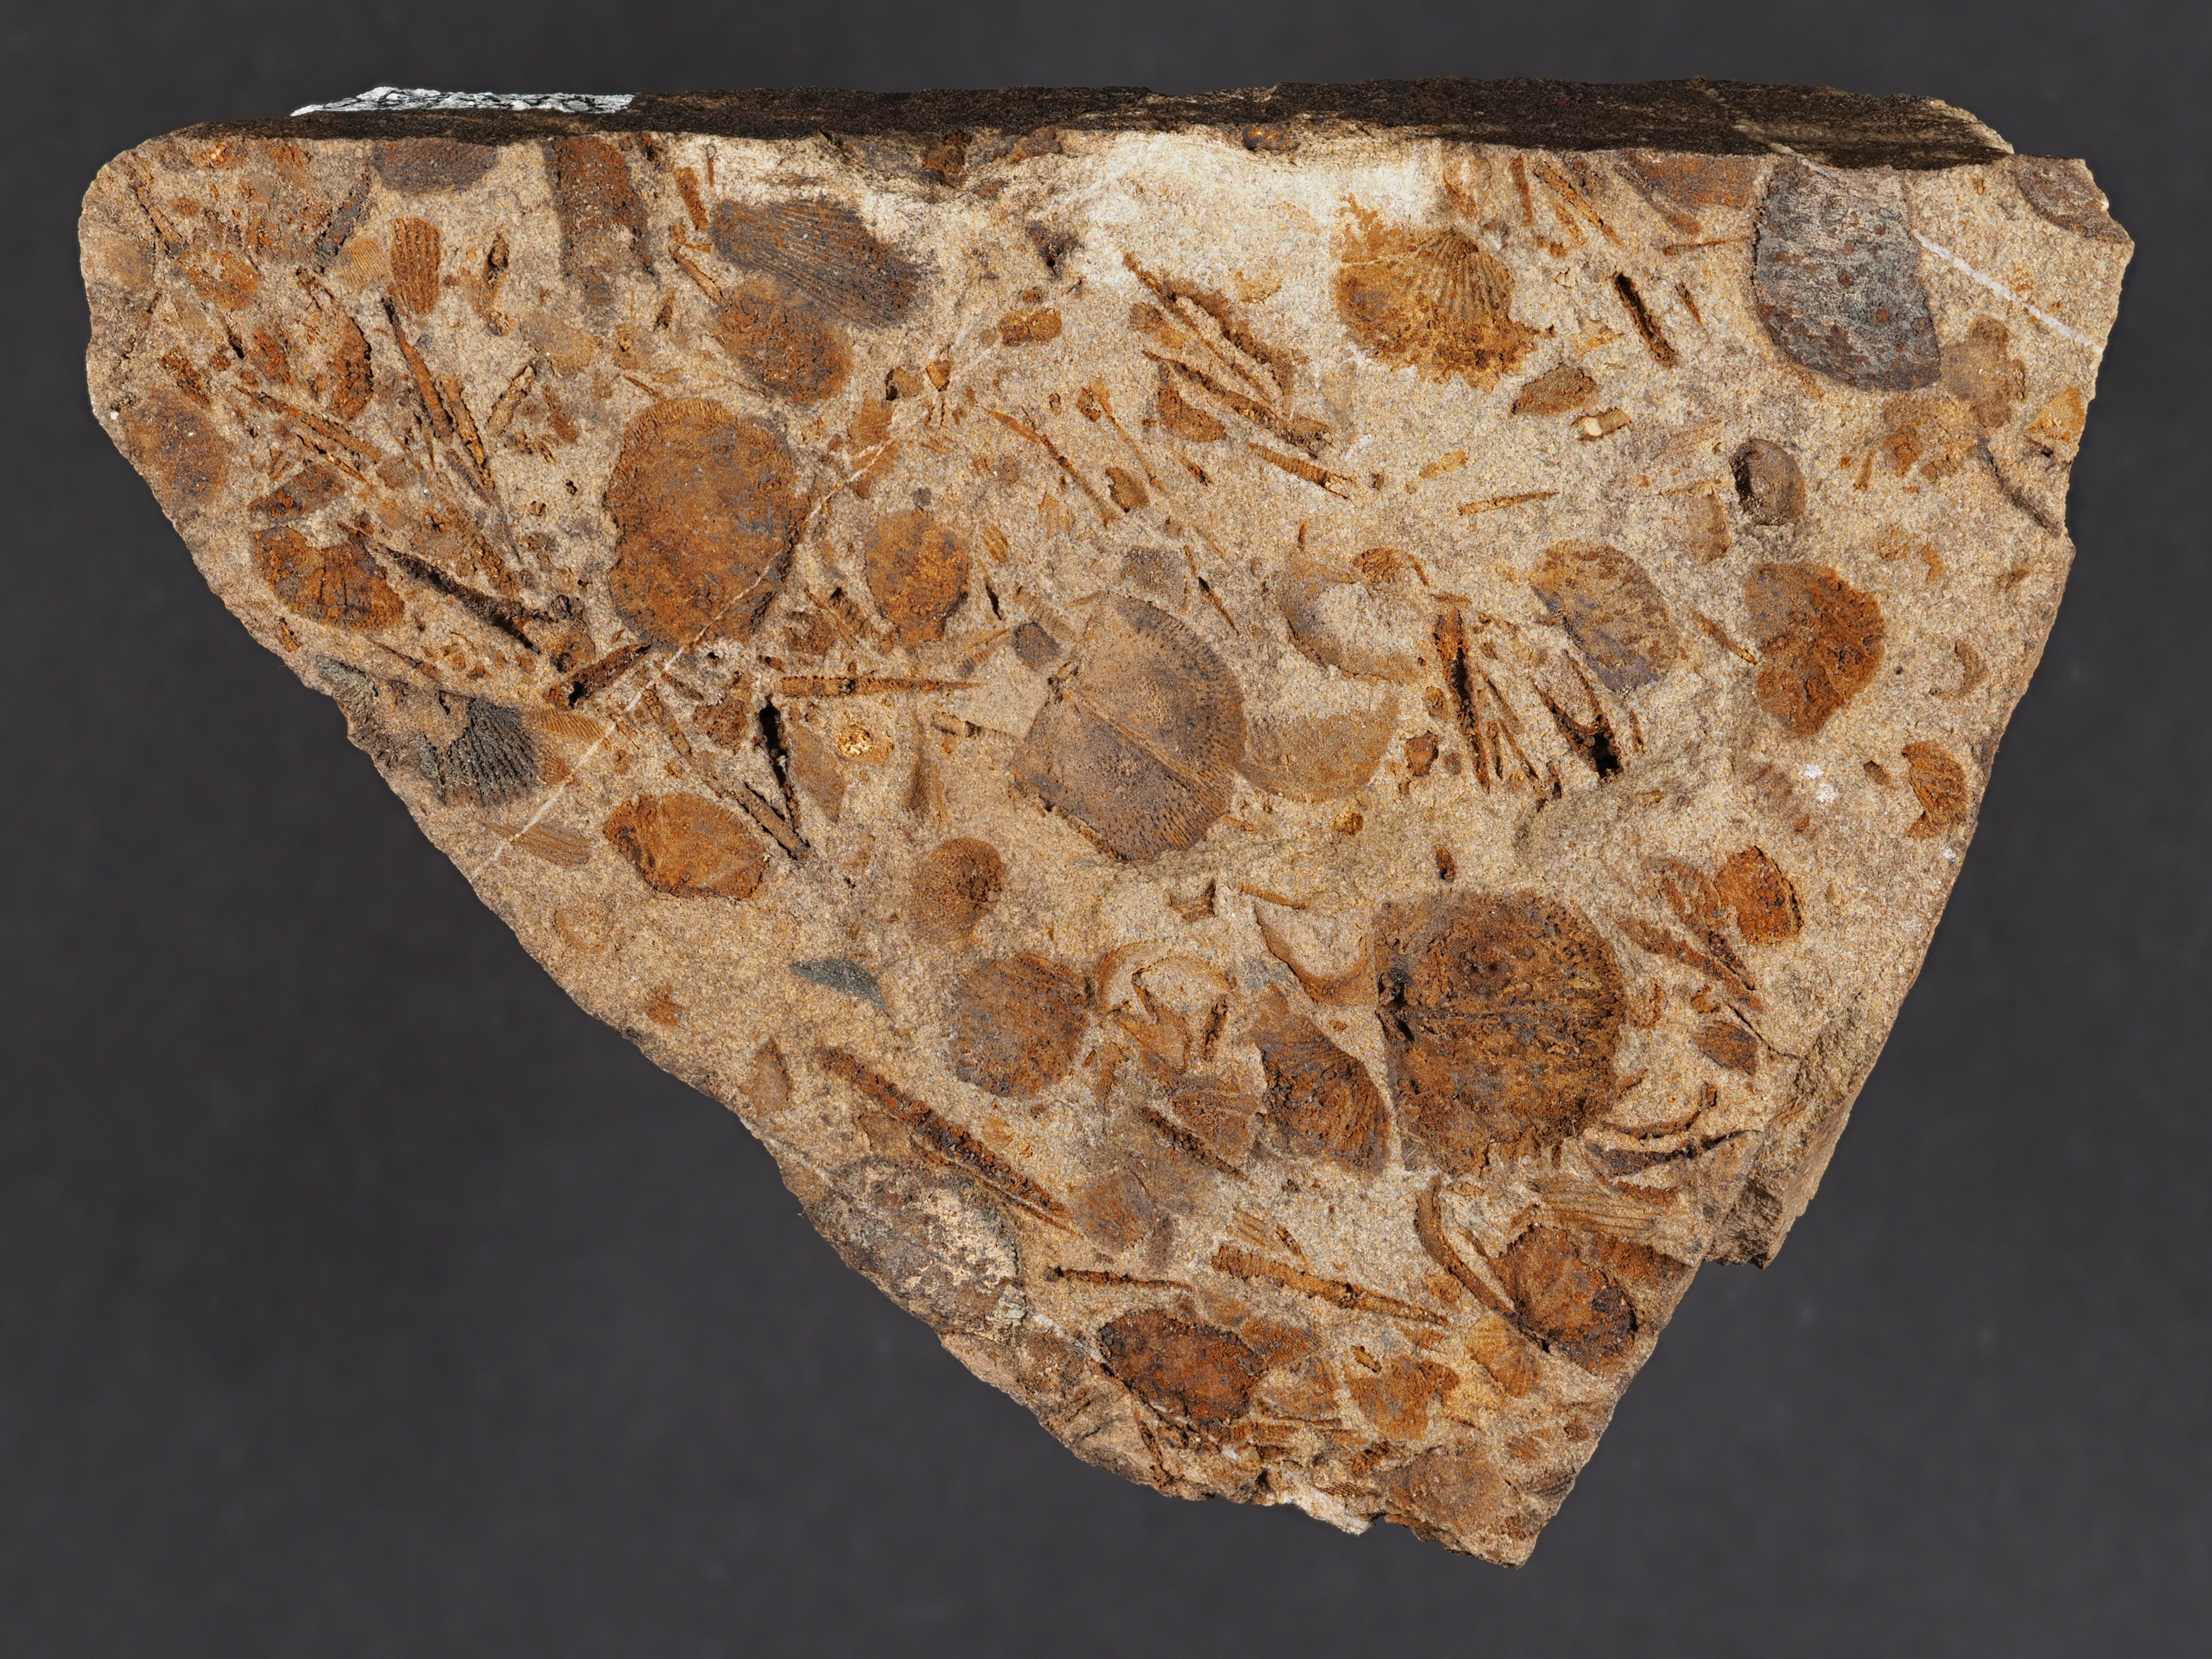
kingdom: Animalia
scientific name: Animalia
